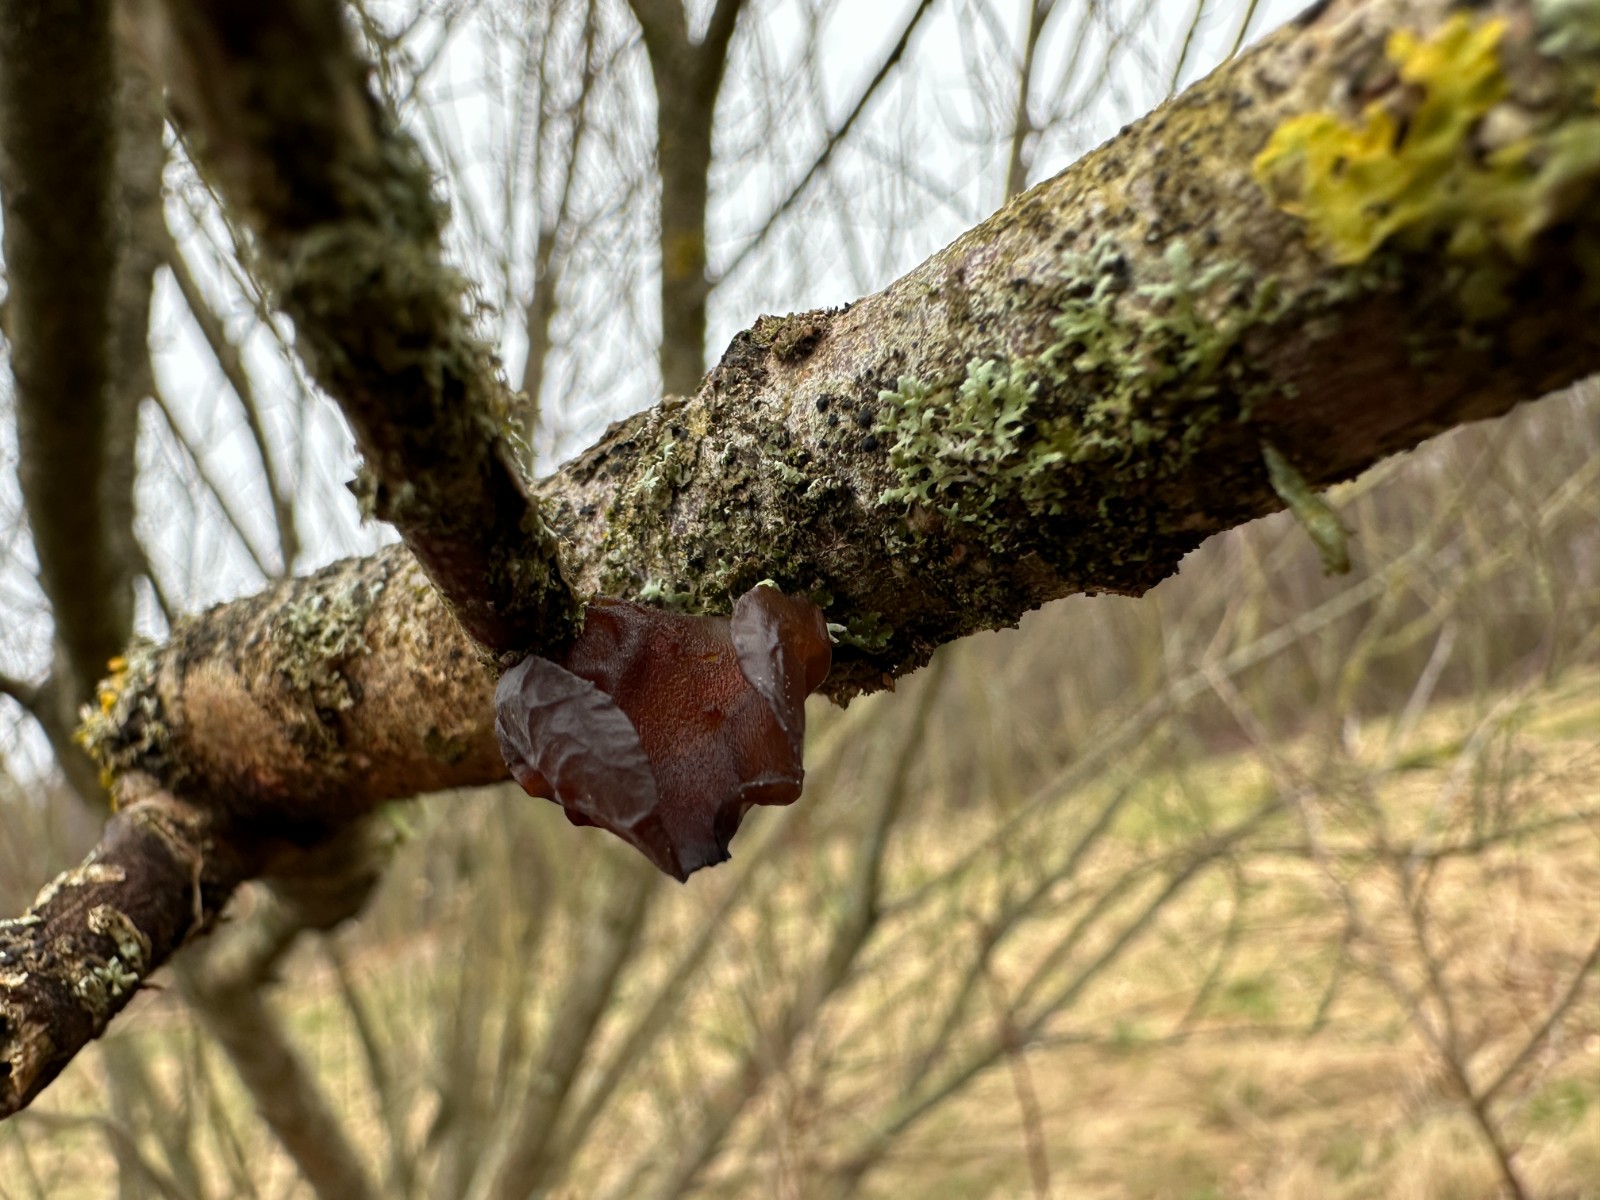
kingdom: Fungi
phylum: Basidiomycota
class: Agaricomycetes
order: Auriculariales
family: Auriculariaceae
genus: Exidia
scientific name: Exidia recisa
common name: pile-bævretop
